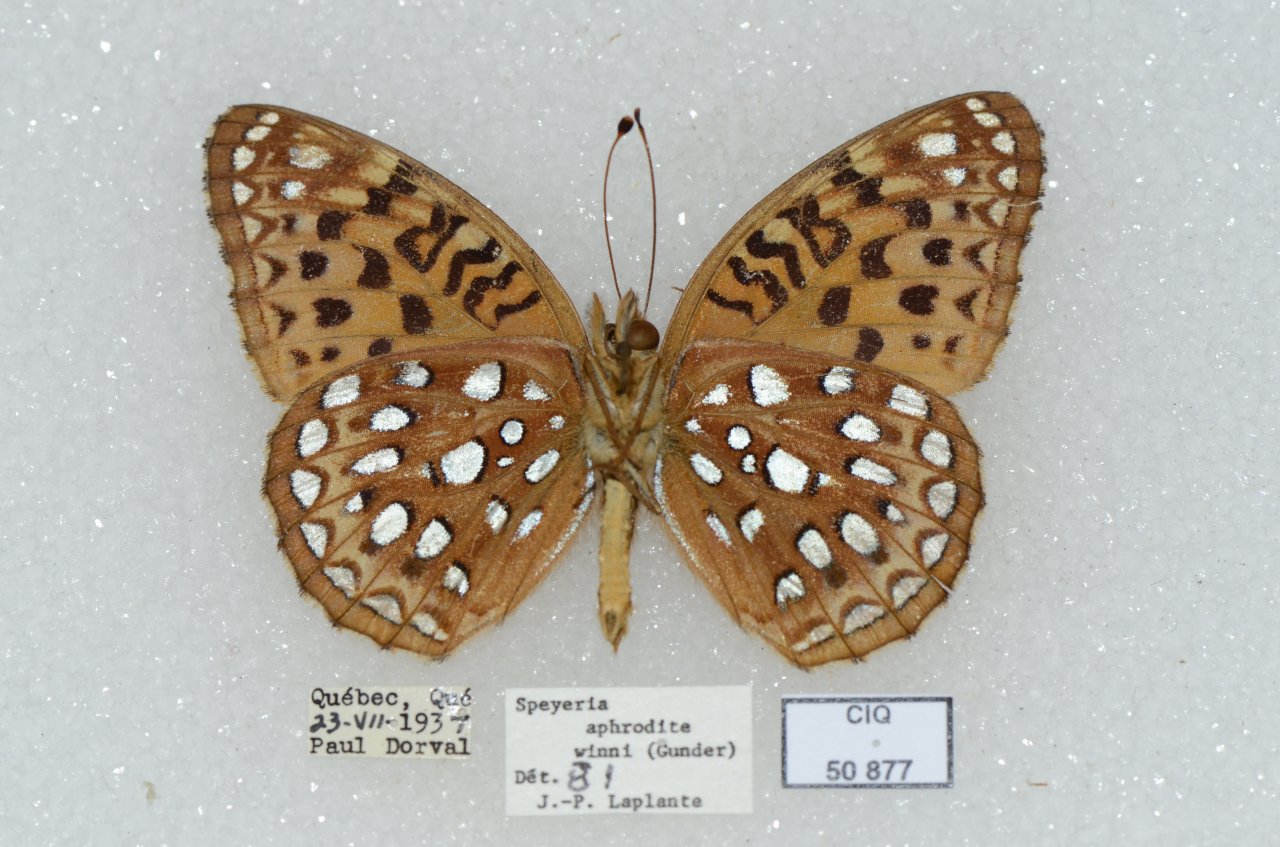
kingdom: Animalia
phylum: Arthropoda
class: Insecta
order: Lepidoptera
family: Nymphalidae
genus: Speyeria
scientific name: Speyeria aphrodite
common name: Aphrodite Fritillary
